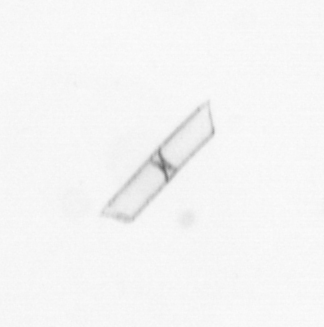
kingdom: Chromista
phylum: Ochrophyta
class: Bacillariophyceae
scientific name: Bacillariophyceae
